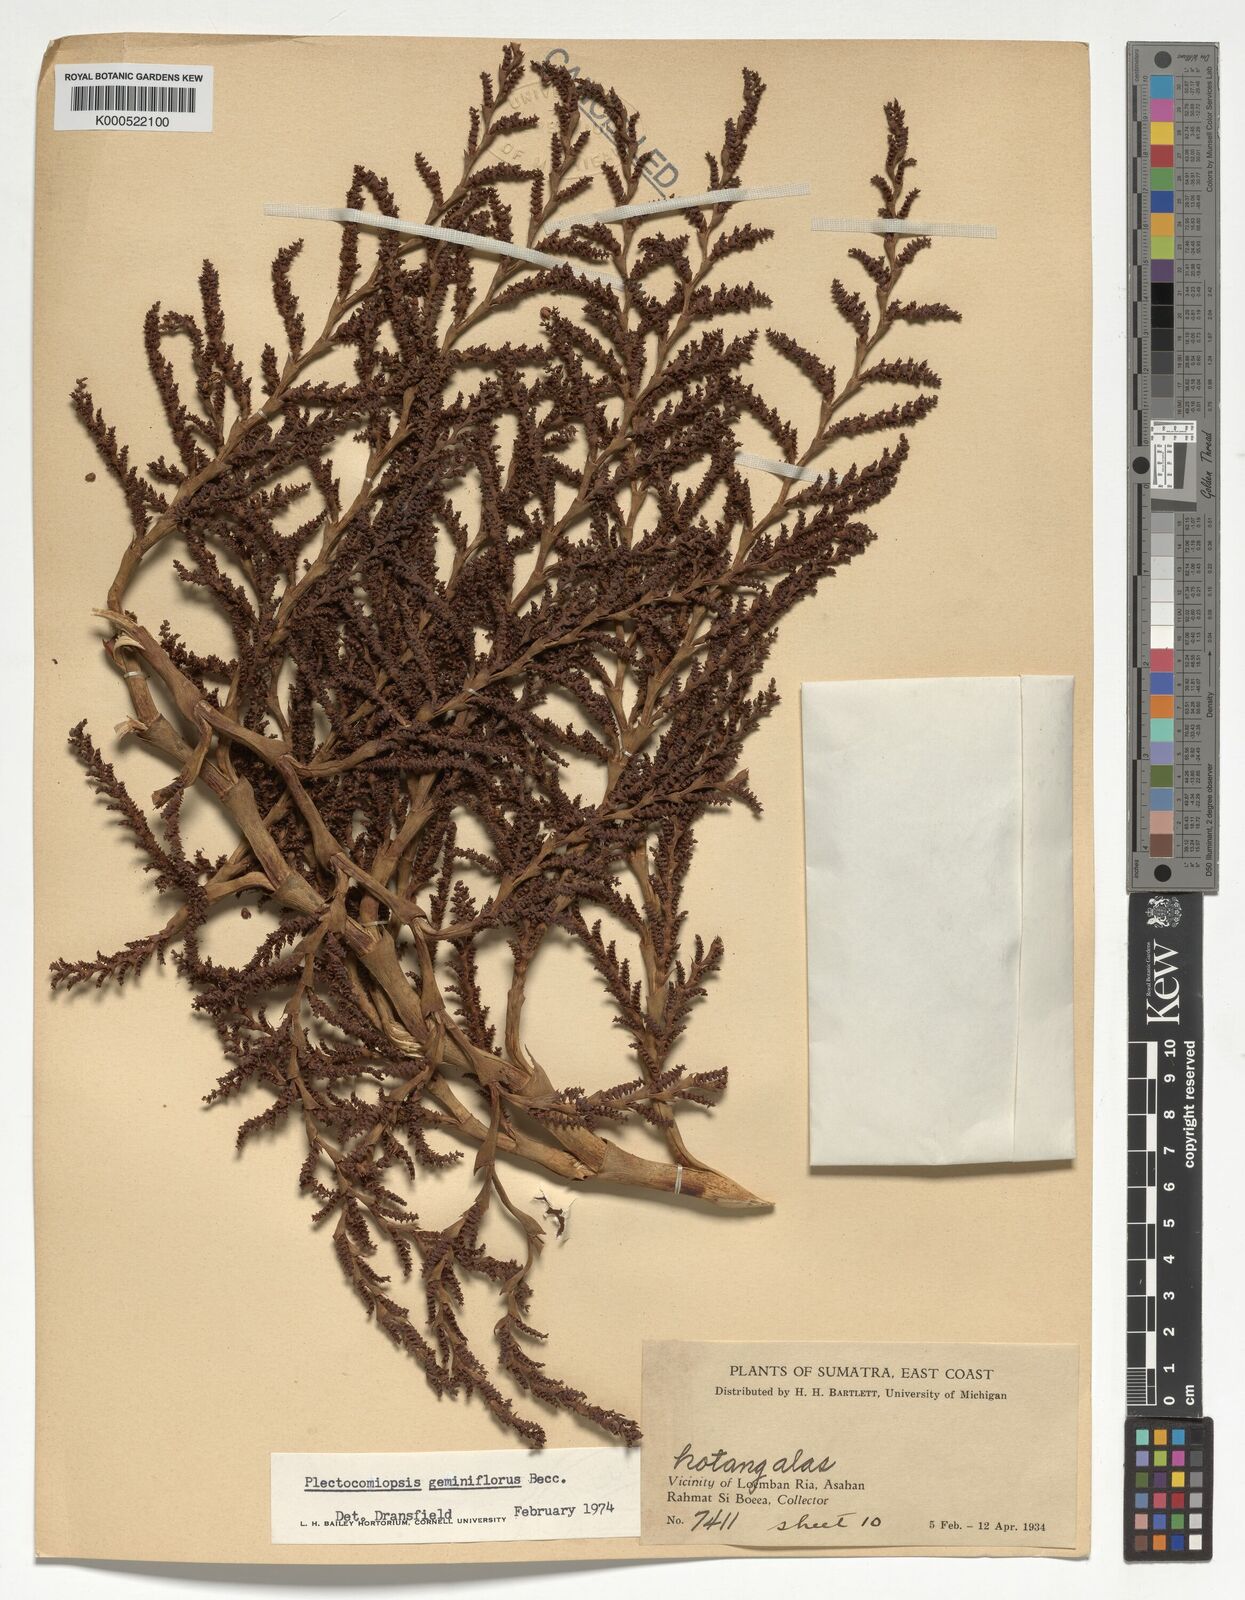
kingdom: Plantae
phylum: Tracheophyta
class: Liliopsida
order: Arecales
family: Arecaceae
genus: Plectocomiopsis
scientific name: Plectocomiopsis geminiflora
